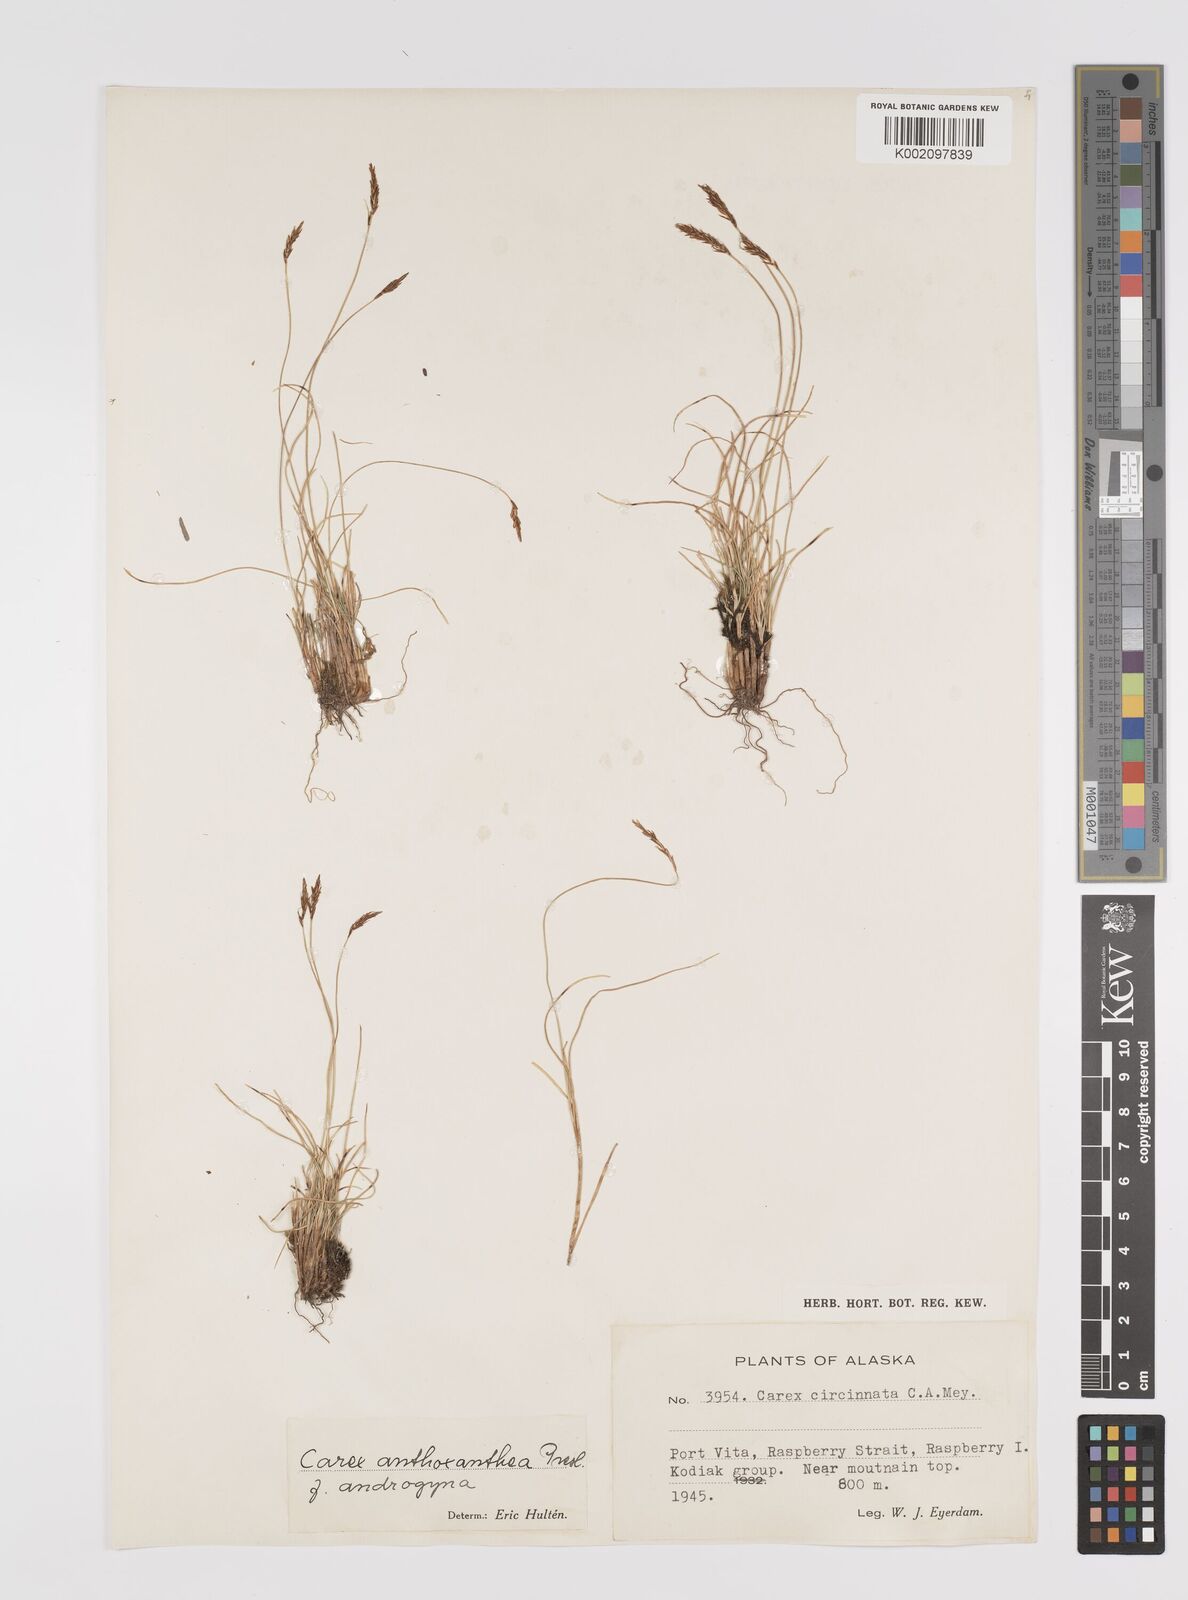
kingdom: Plantae
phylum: Tracheophyta
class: Liliopsida
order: Poales
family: Cyperaceae
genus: Carex
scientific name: Carex anthoxanthea
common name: Grassy-slope arctic sedge
